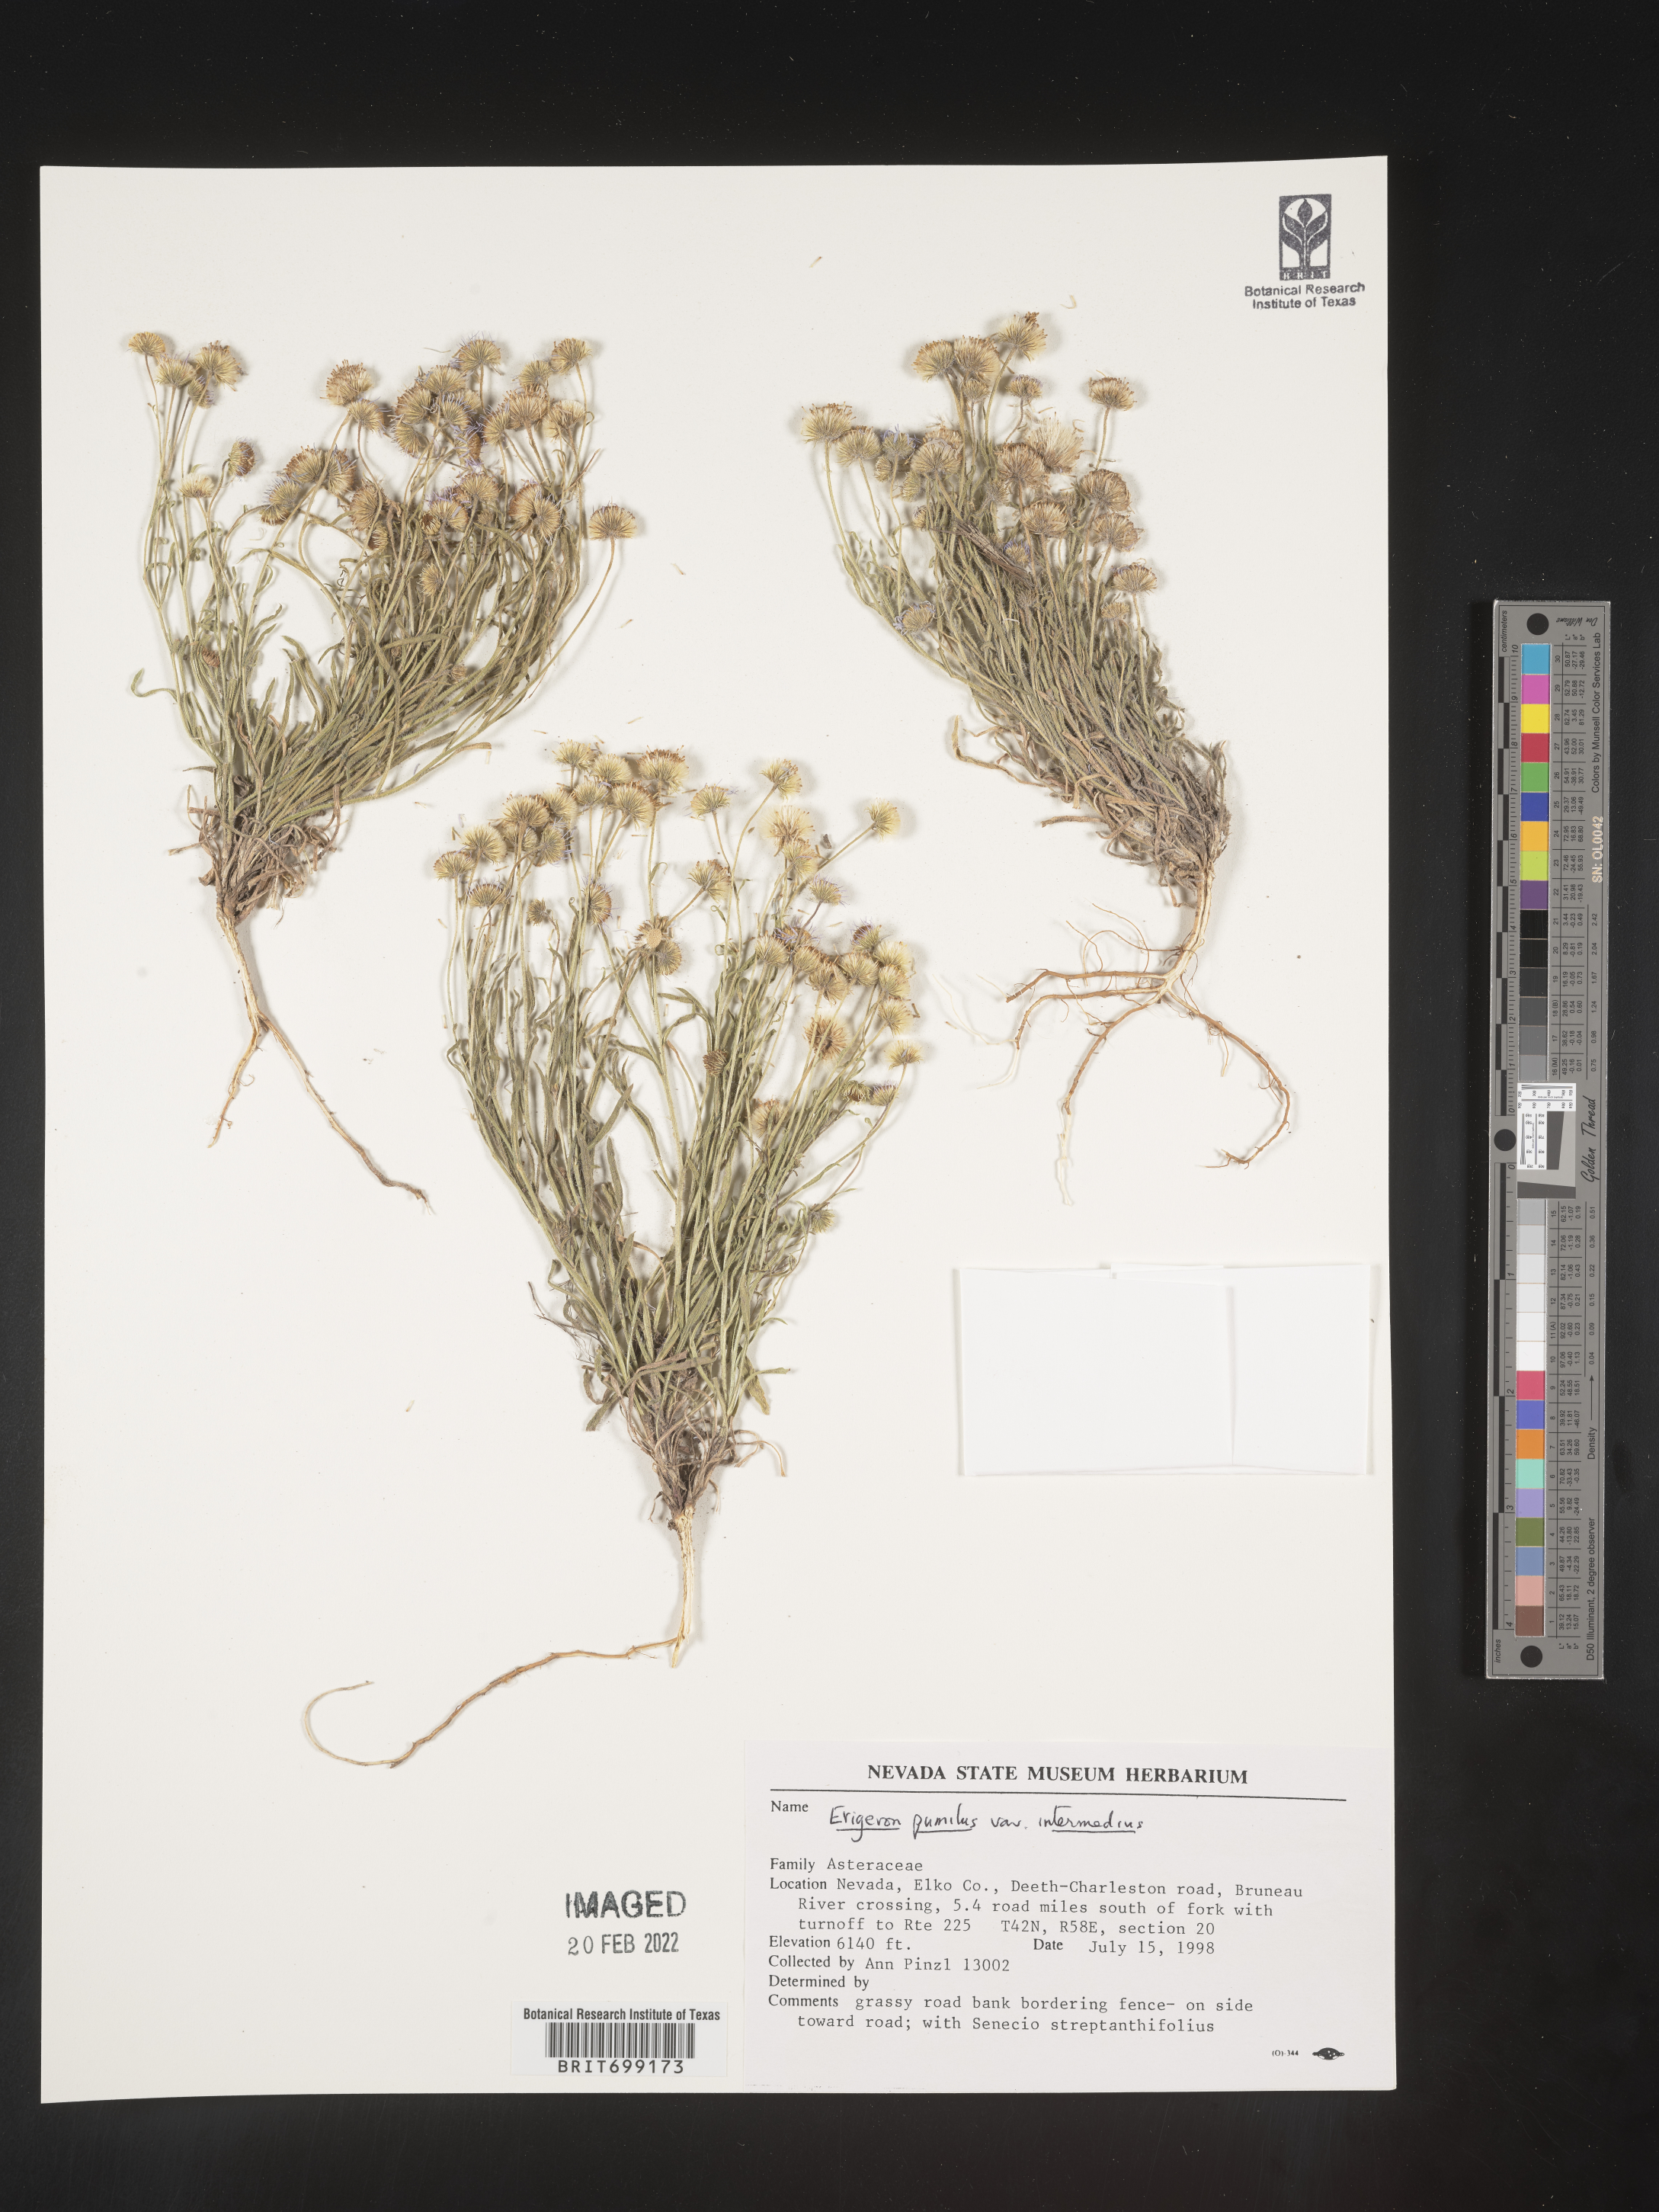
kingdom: Plantae
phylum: Tracheophyta
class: Magnoliopsida
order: Asterales
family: Asteraceae
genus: Erigeron
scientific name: Erigeron pumilus
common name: Shaggy fleabane
